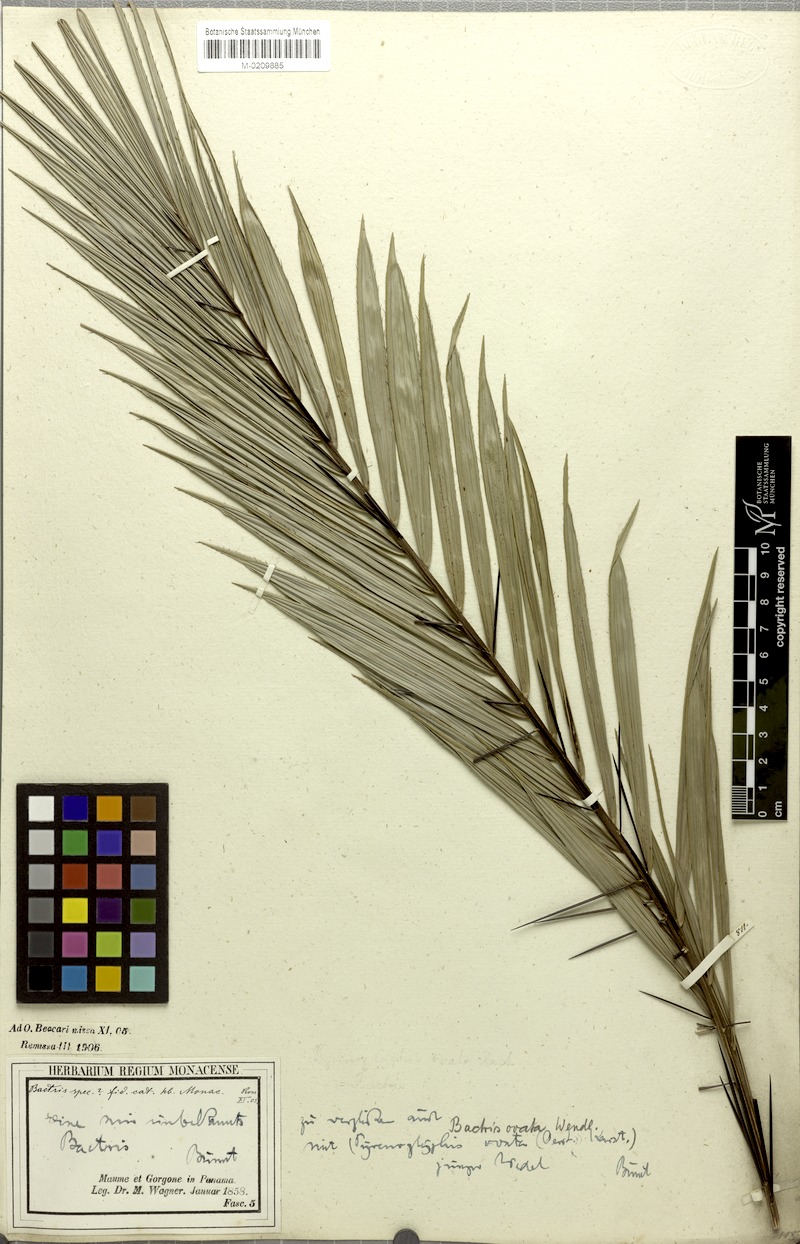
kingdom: Plantae
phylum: Tracheophyta
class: Liliopsida
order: Arecales
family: Arecaceae
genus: Bactris
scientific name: Bactris major
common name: Beach palm
